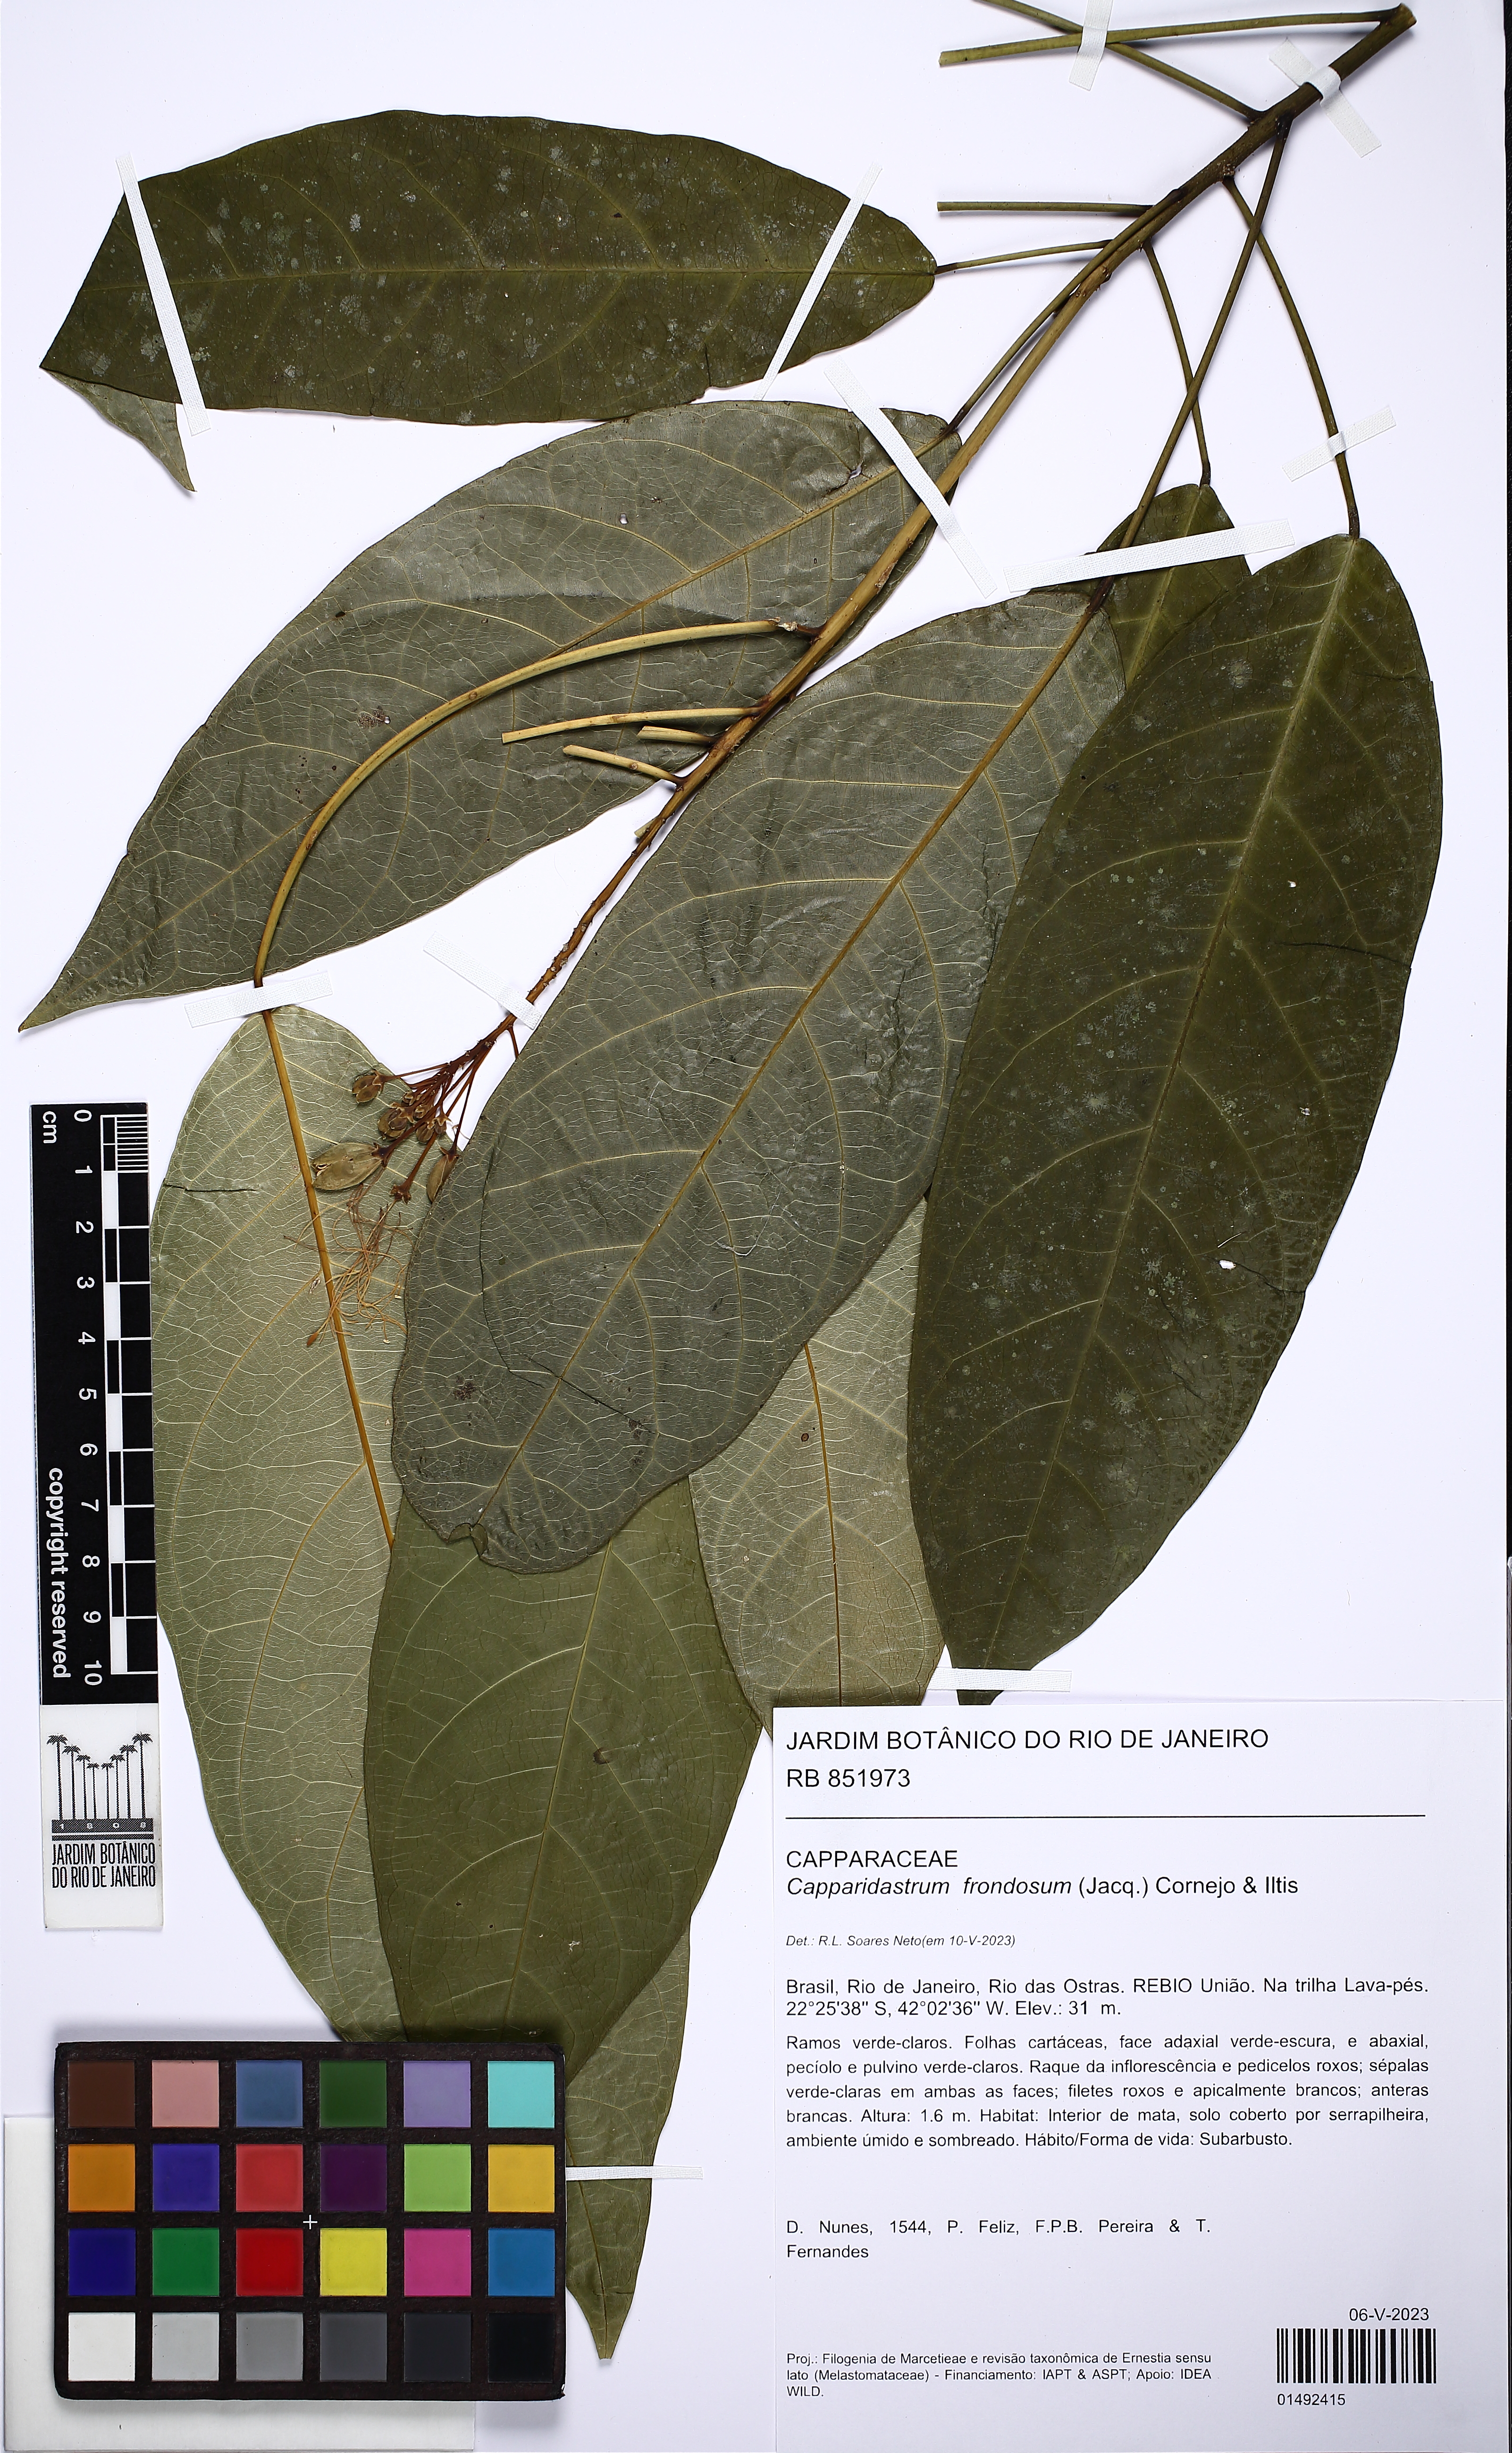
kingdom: Plantae
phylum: Tracheophyta
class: Magnoliopsida
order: Brassicales
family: Capparaceae
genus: Capparidastrum
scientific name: Capparidastrum frondosum
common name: Church blossom
